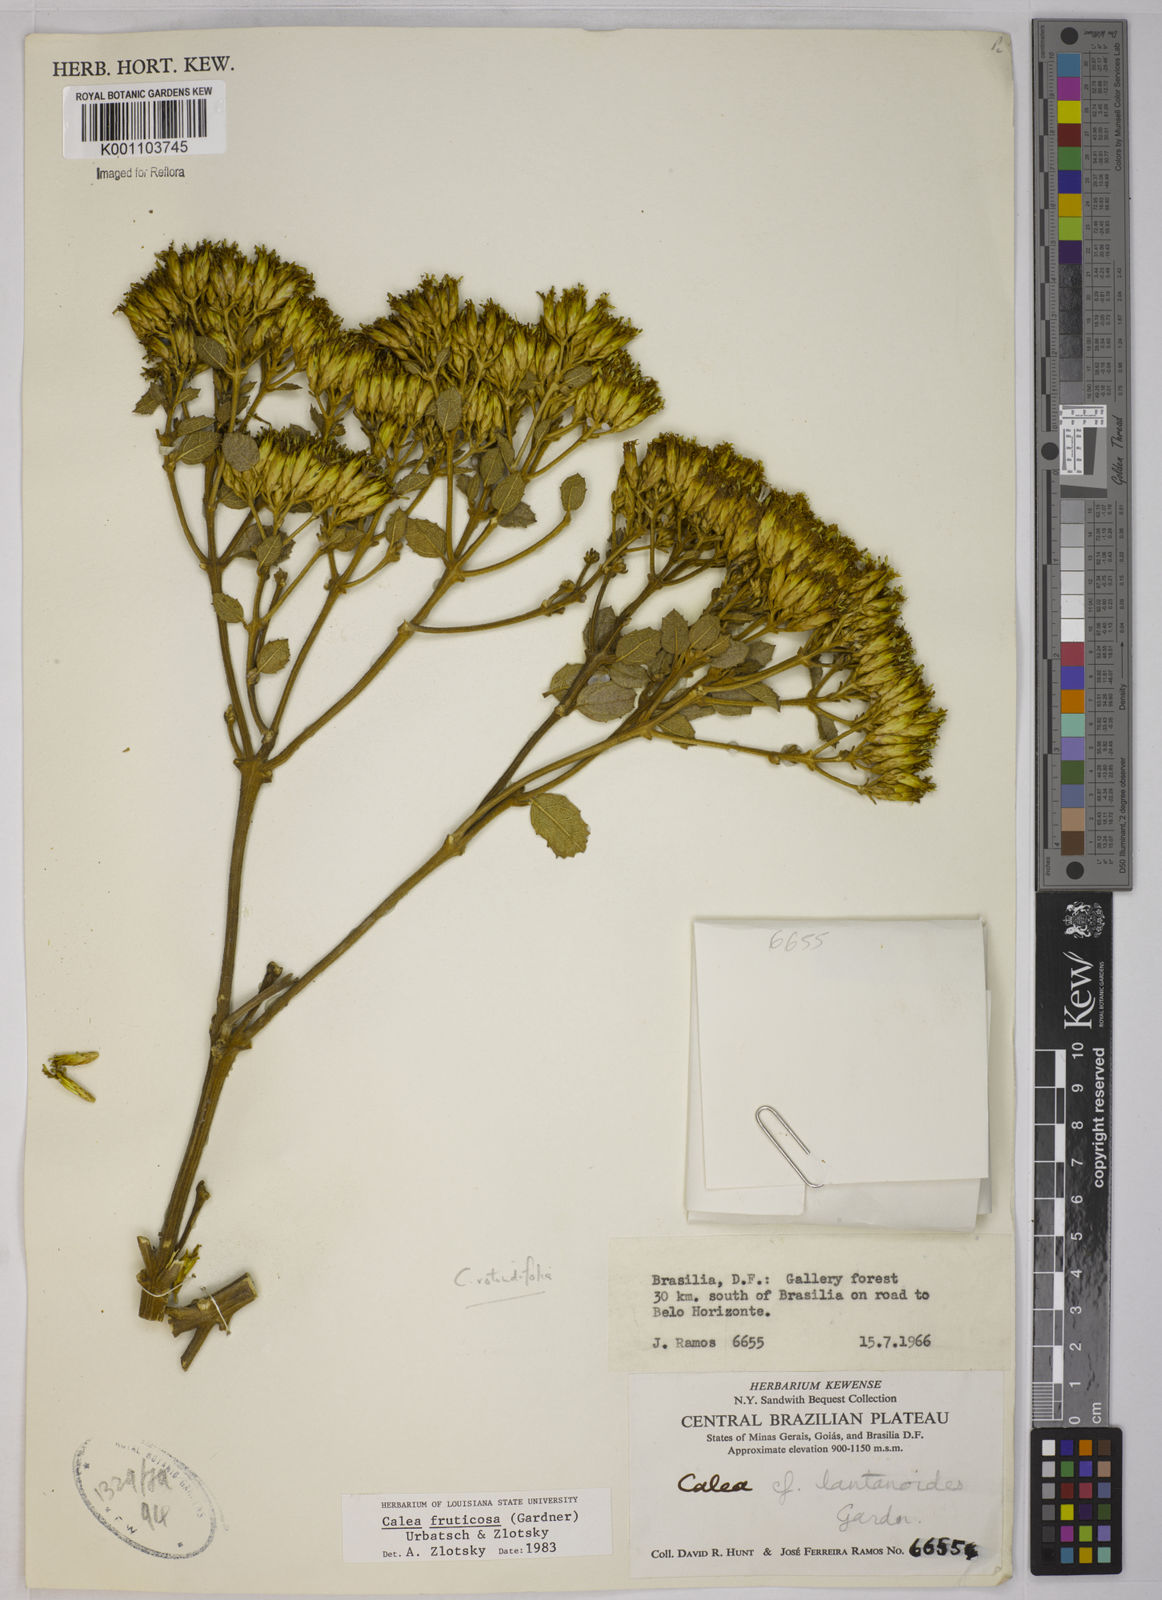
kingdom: Plantae
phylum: Tracheophyta
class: Magnoliopsida
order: Asterales
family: Asteraceae
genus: Calea
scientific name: Calea fruticosa
